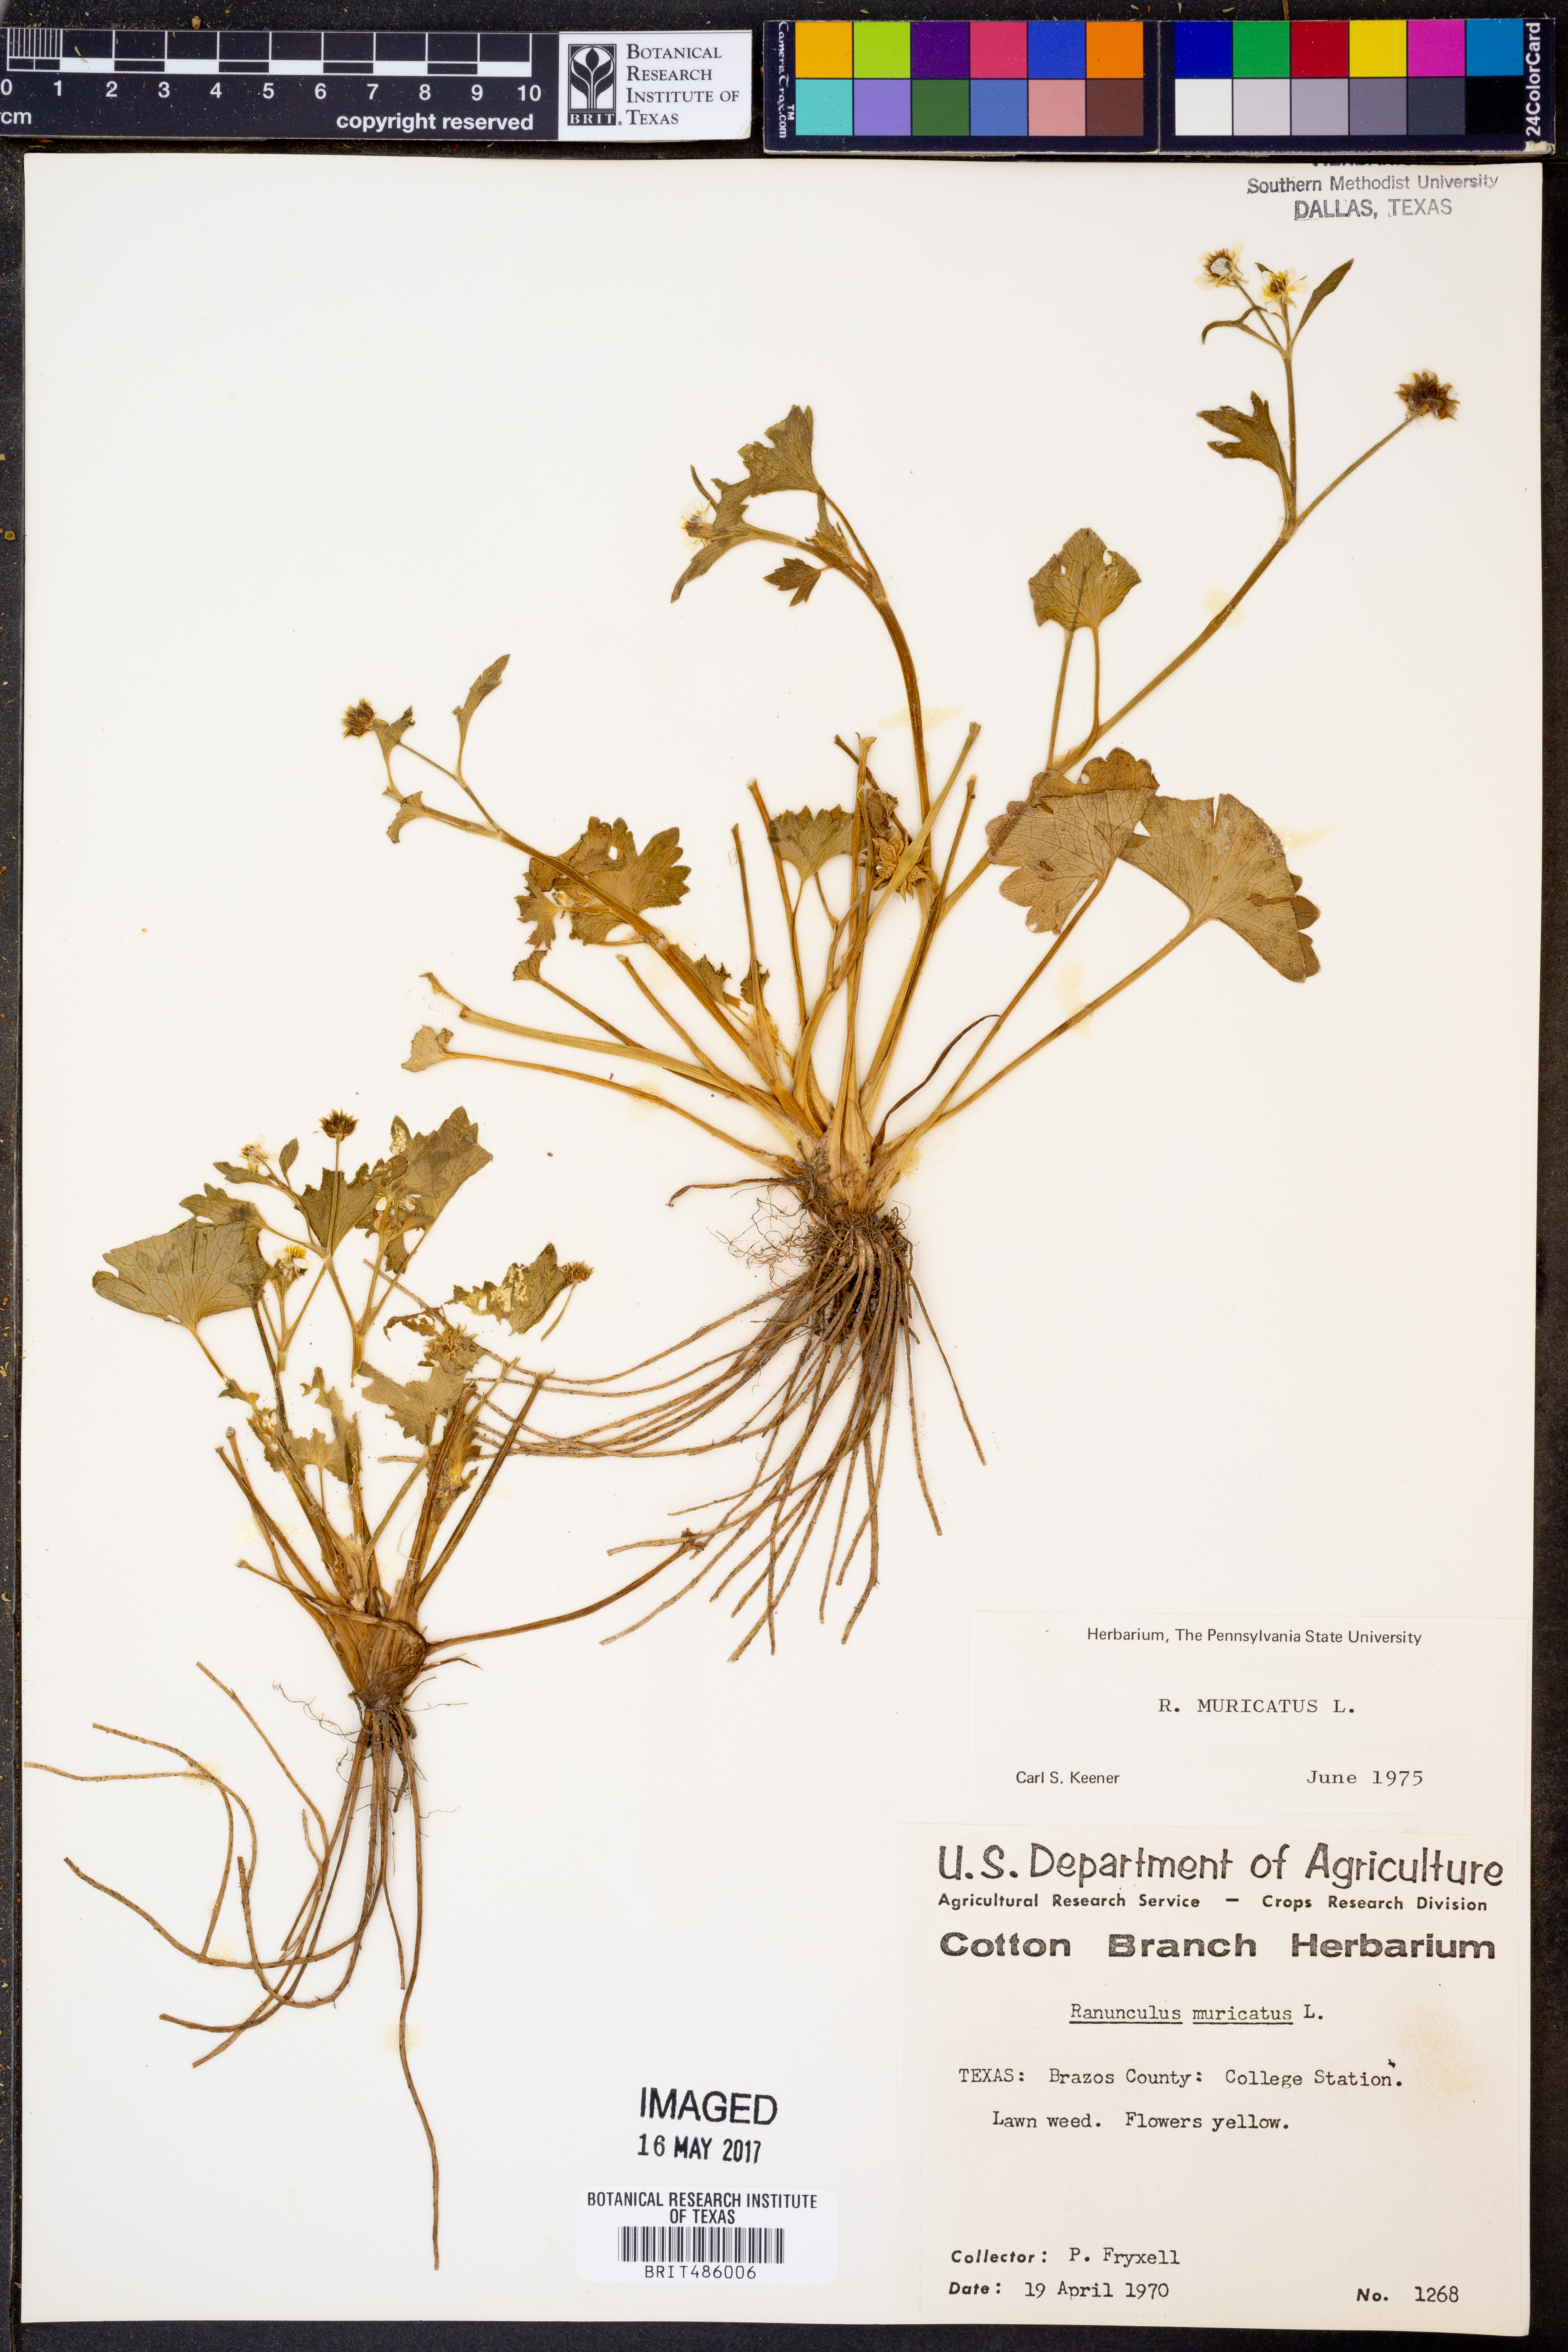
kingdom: Plantae
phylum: Tracheophyta
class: Magnoliopsida
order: Ranunculales
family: Ranunculaceae
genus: Ranunculus
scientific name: Ranunculus muricatus
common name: Rough-fruited buttercup
